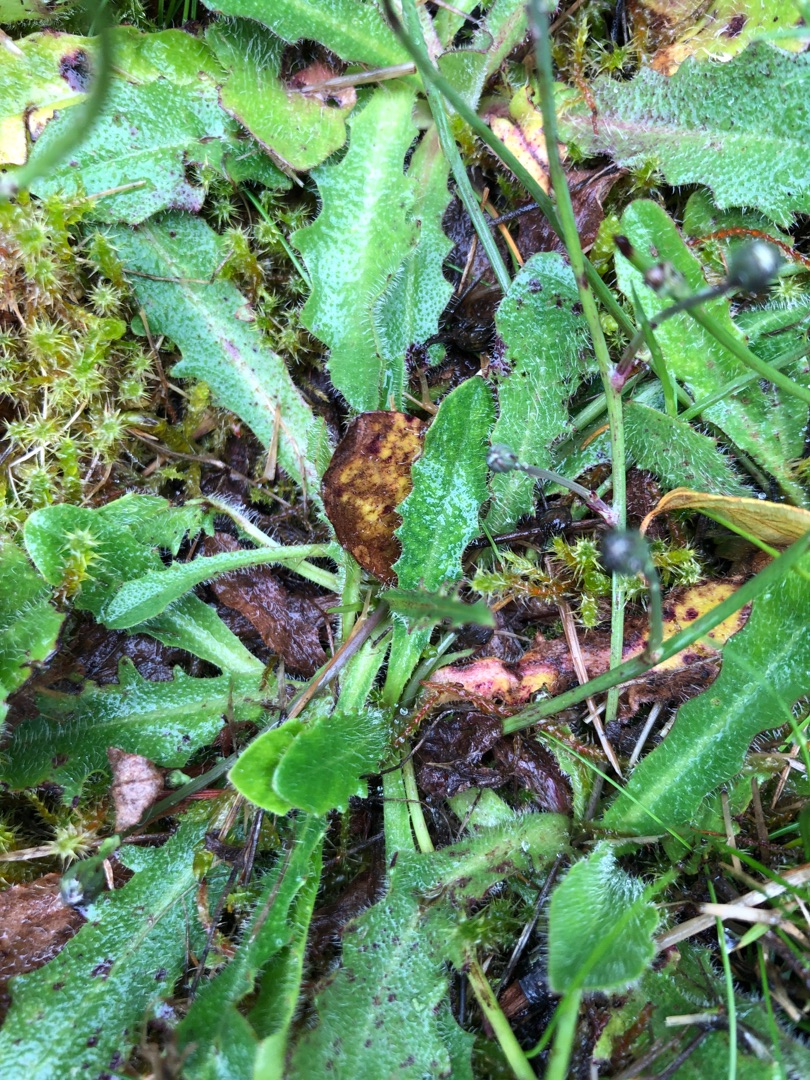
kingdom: Plantae
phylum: Tracheophyta
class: Magnoliopsida
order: Asterales
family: Asteraceae
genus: Hypochaeris
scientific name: Hypochaeris radicata
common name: Almindelig kongepen
